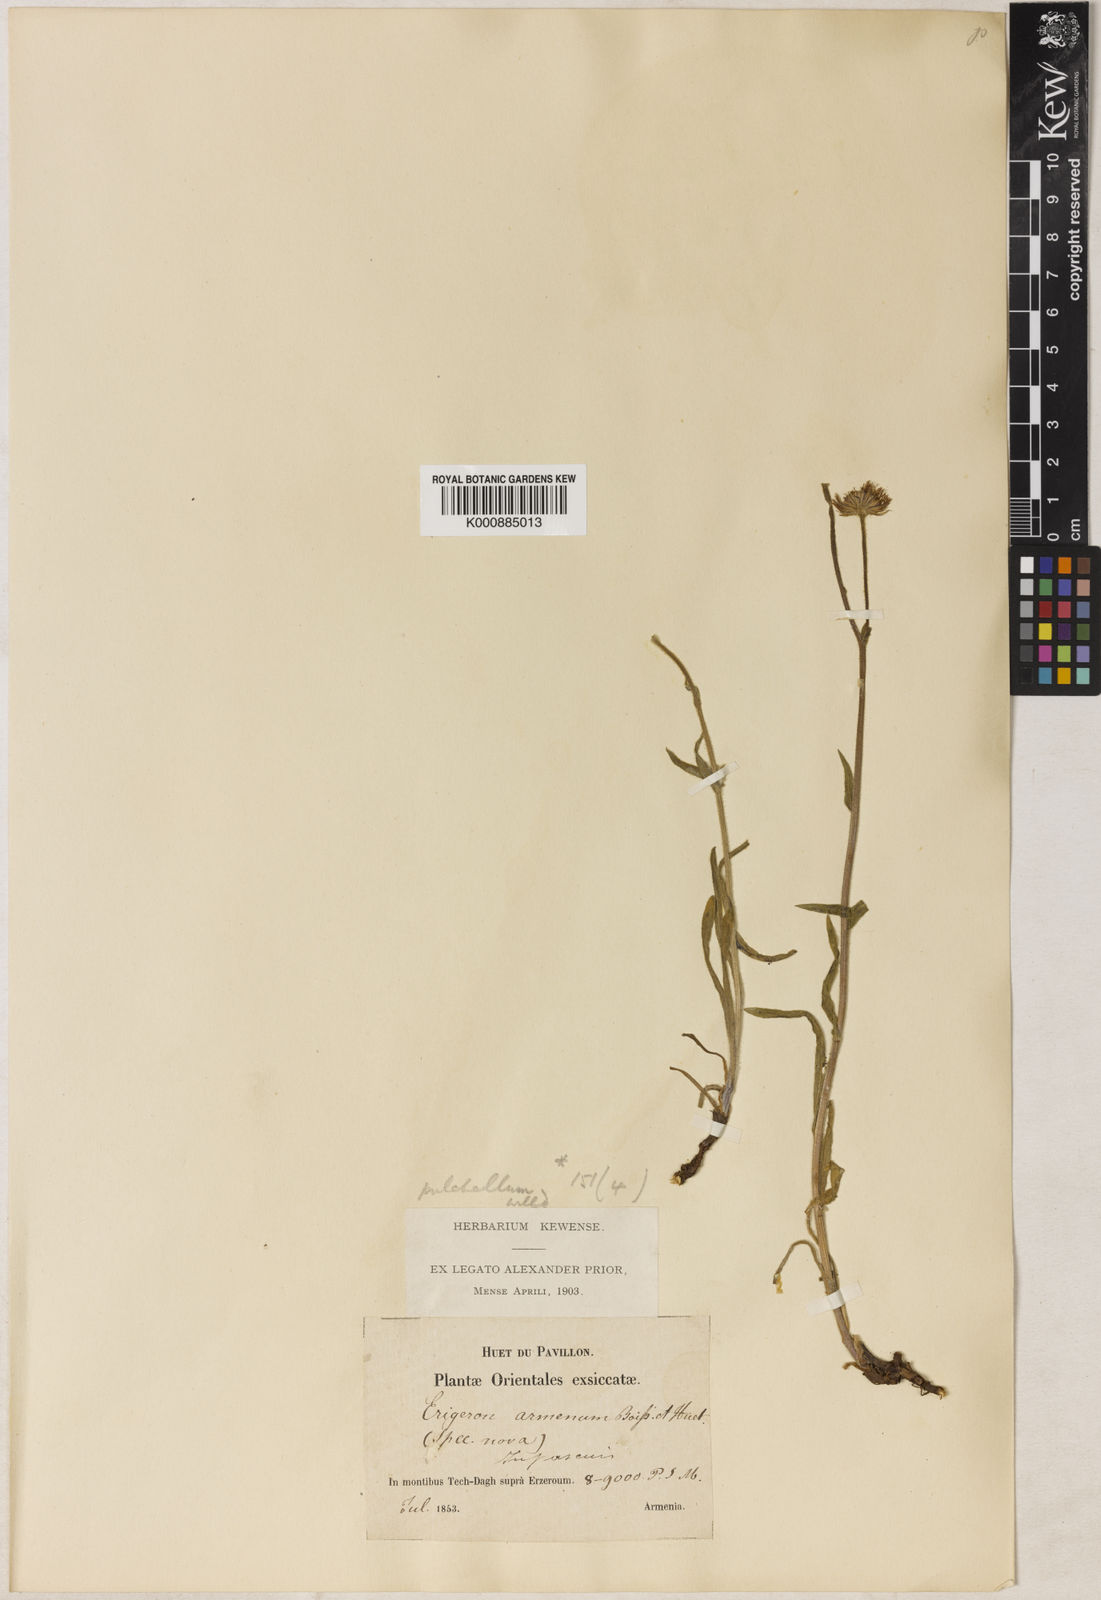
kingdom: Plantae
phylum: Tracheophyta
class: Magnoliopsida
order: Asterales
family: Asteraceae
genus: Erigeron
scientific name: Erigeron caucasicus
